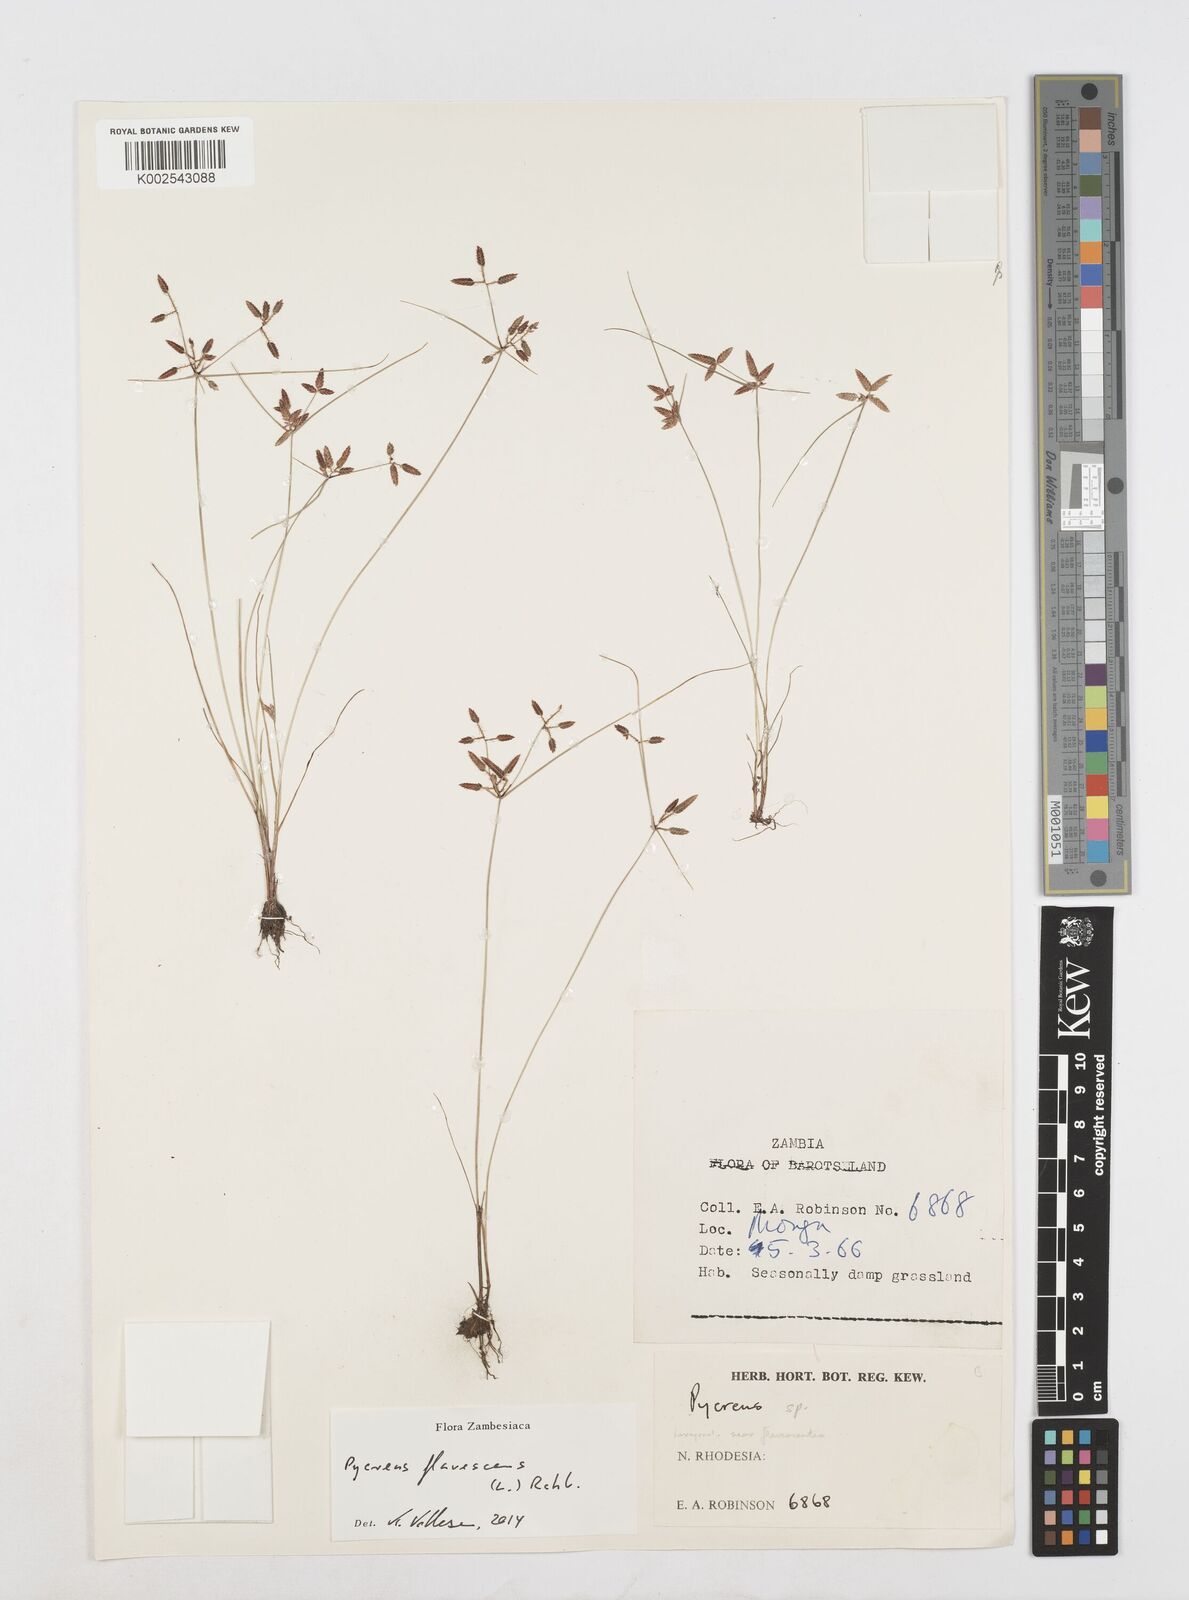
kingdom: Plantae
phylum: Tracheophyta
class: Liliopsida
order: Poales
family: Cyperaceae
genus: Cyperus
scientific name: Cyperus flavescens
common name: Yellow galingale
